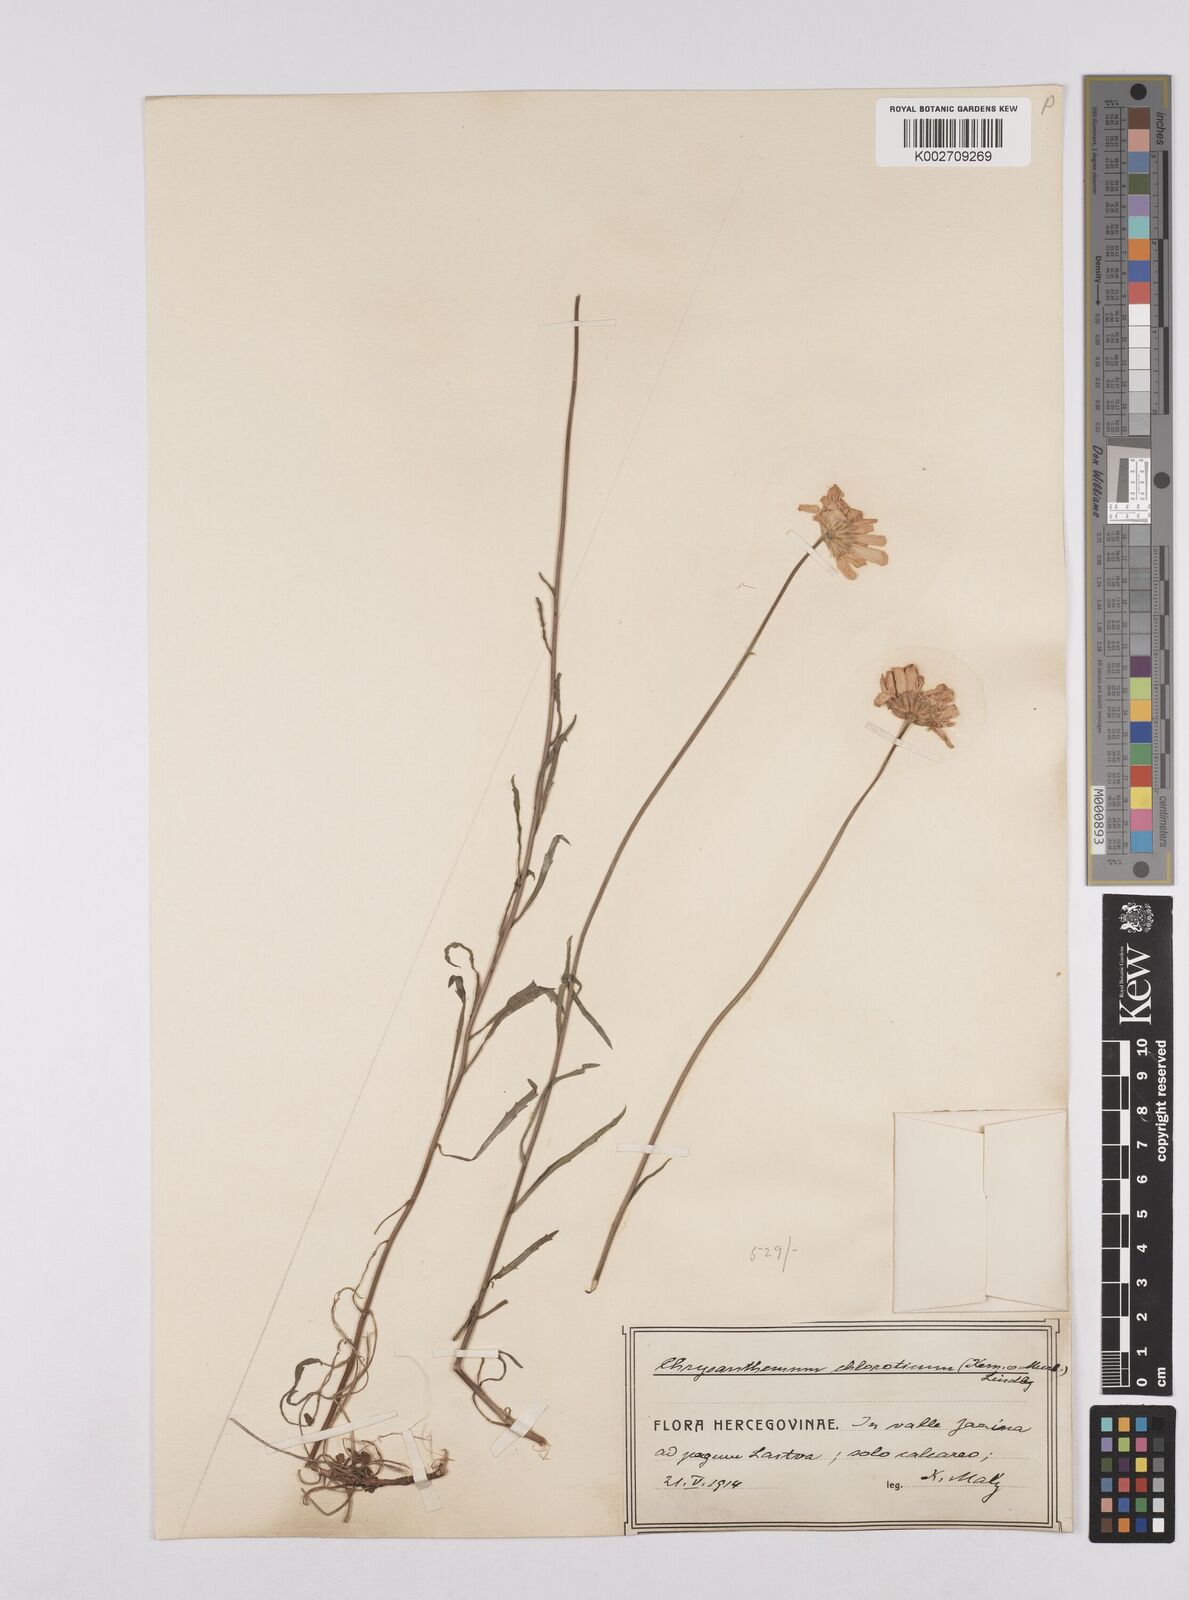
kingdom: Plantae
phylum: Tracheophyta
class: Magnoliopsida
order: Asterales
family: Asteraceae
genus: Leucanthemum
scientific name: Leucanthemum chloroticum
